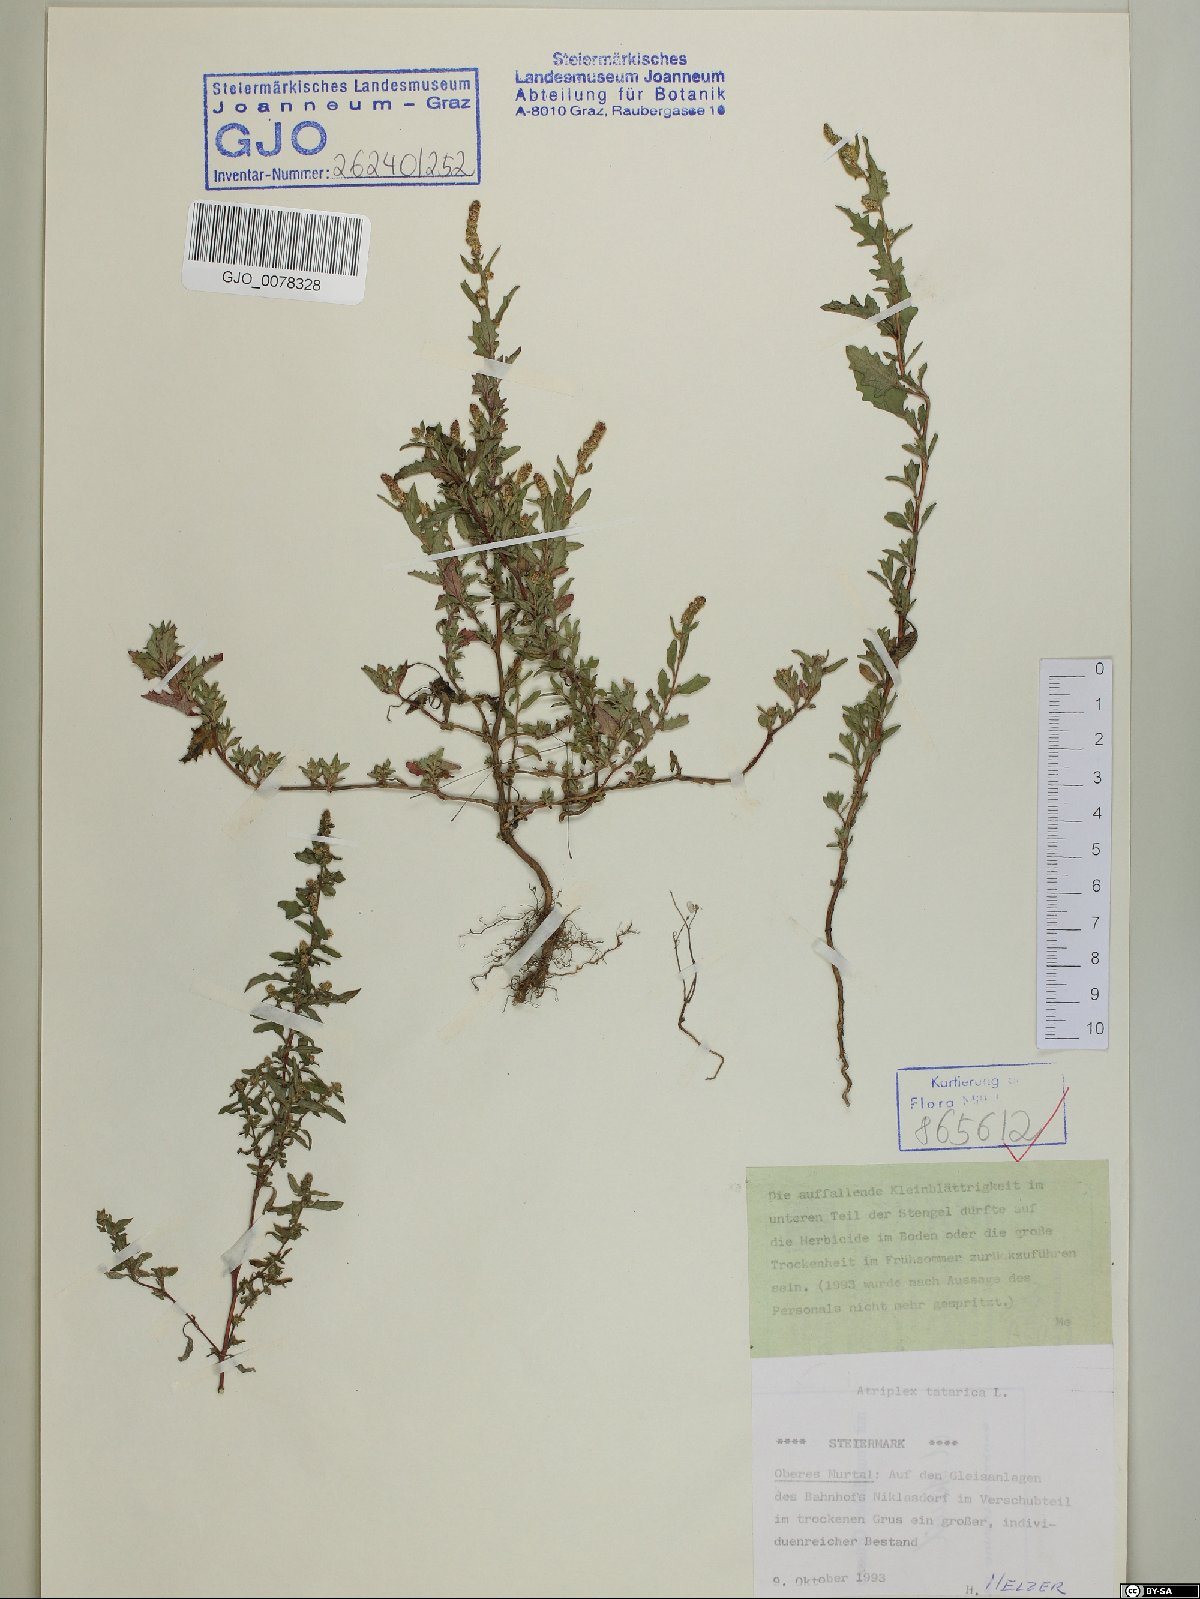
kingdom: Plantae
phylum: Tracheophyta
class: Magnoliopsida
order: Caryophyllales
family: Amaranthaceae
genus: Atriplex
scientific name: Atriplex tatarica
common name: Tatarian orache
